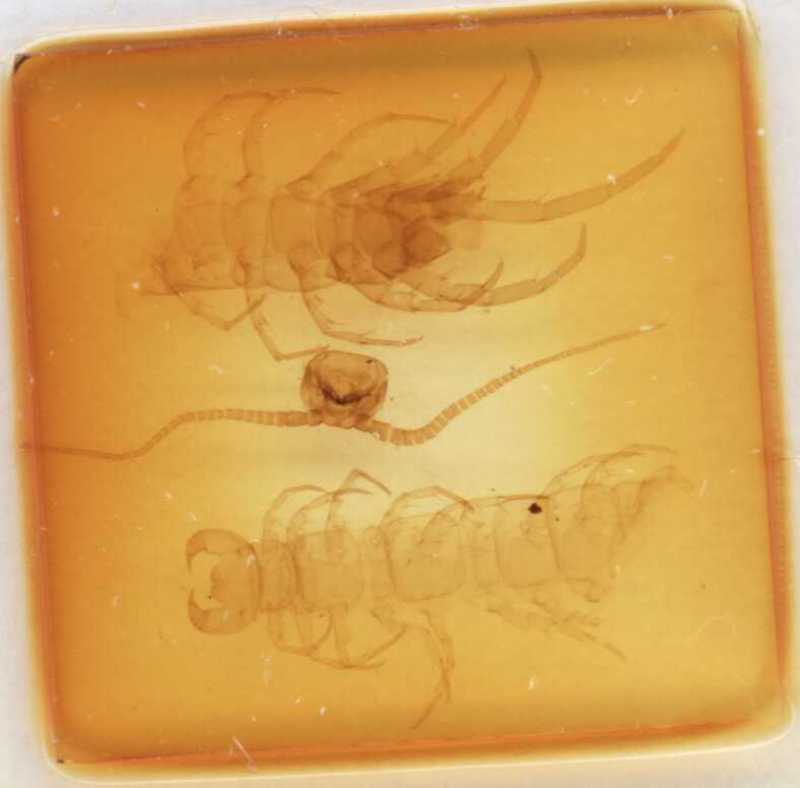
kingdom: Animalia
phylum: Arthropoda
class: Chilopoda
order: Lithobiomorpha
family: Lithobiidae
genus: Lithobius
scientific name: Lithobius tricuspis
